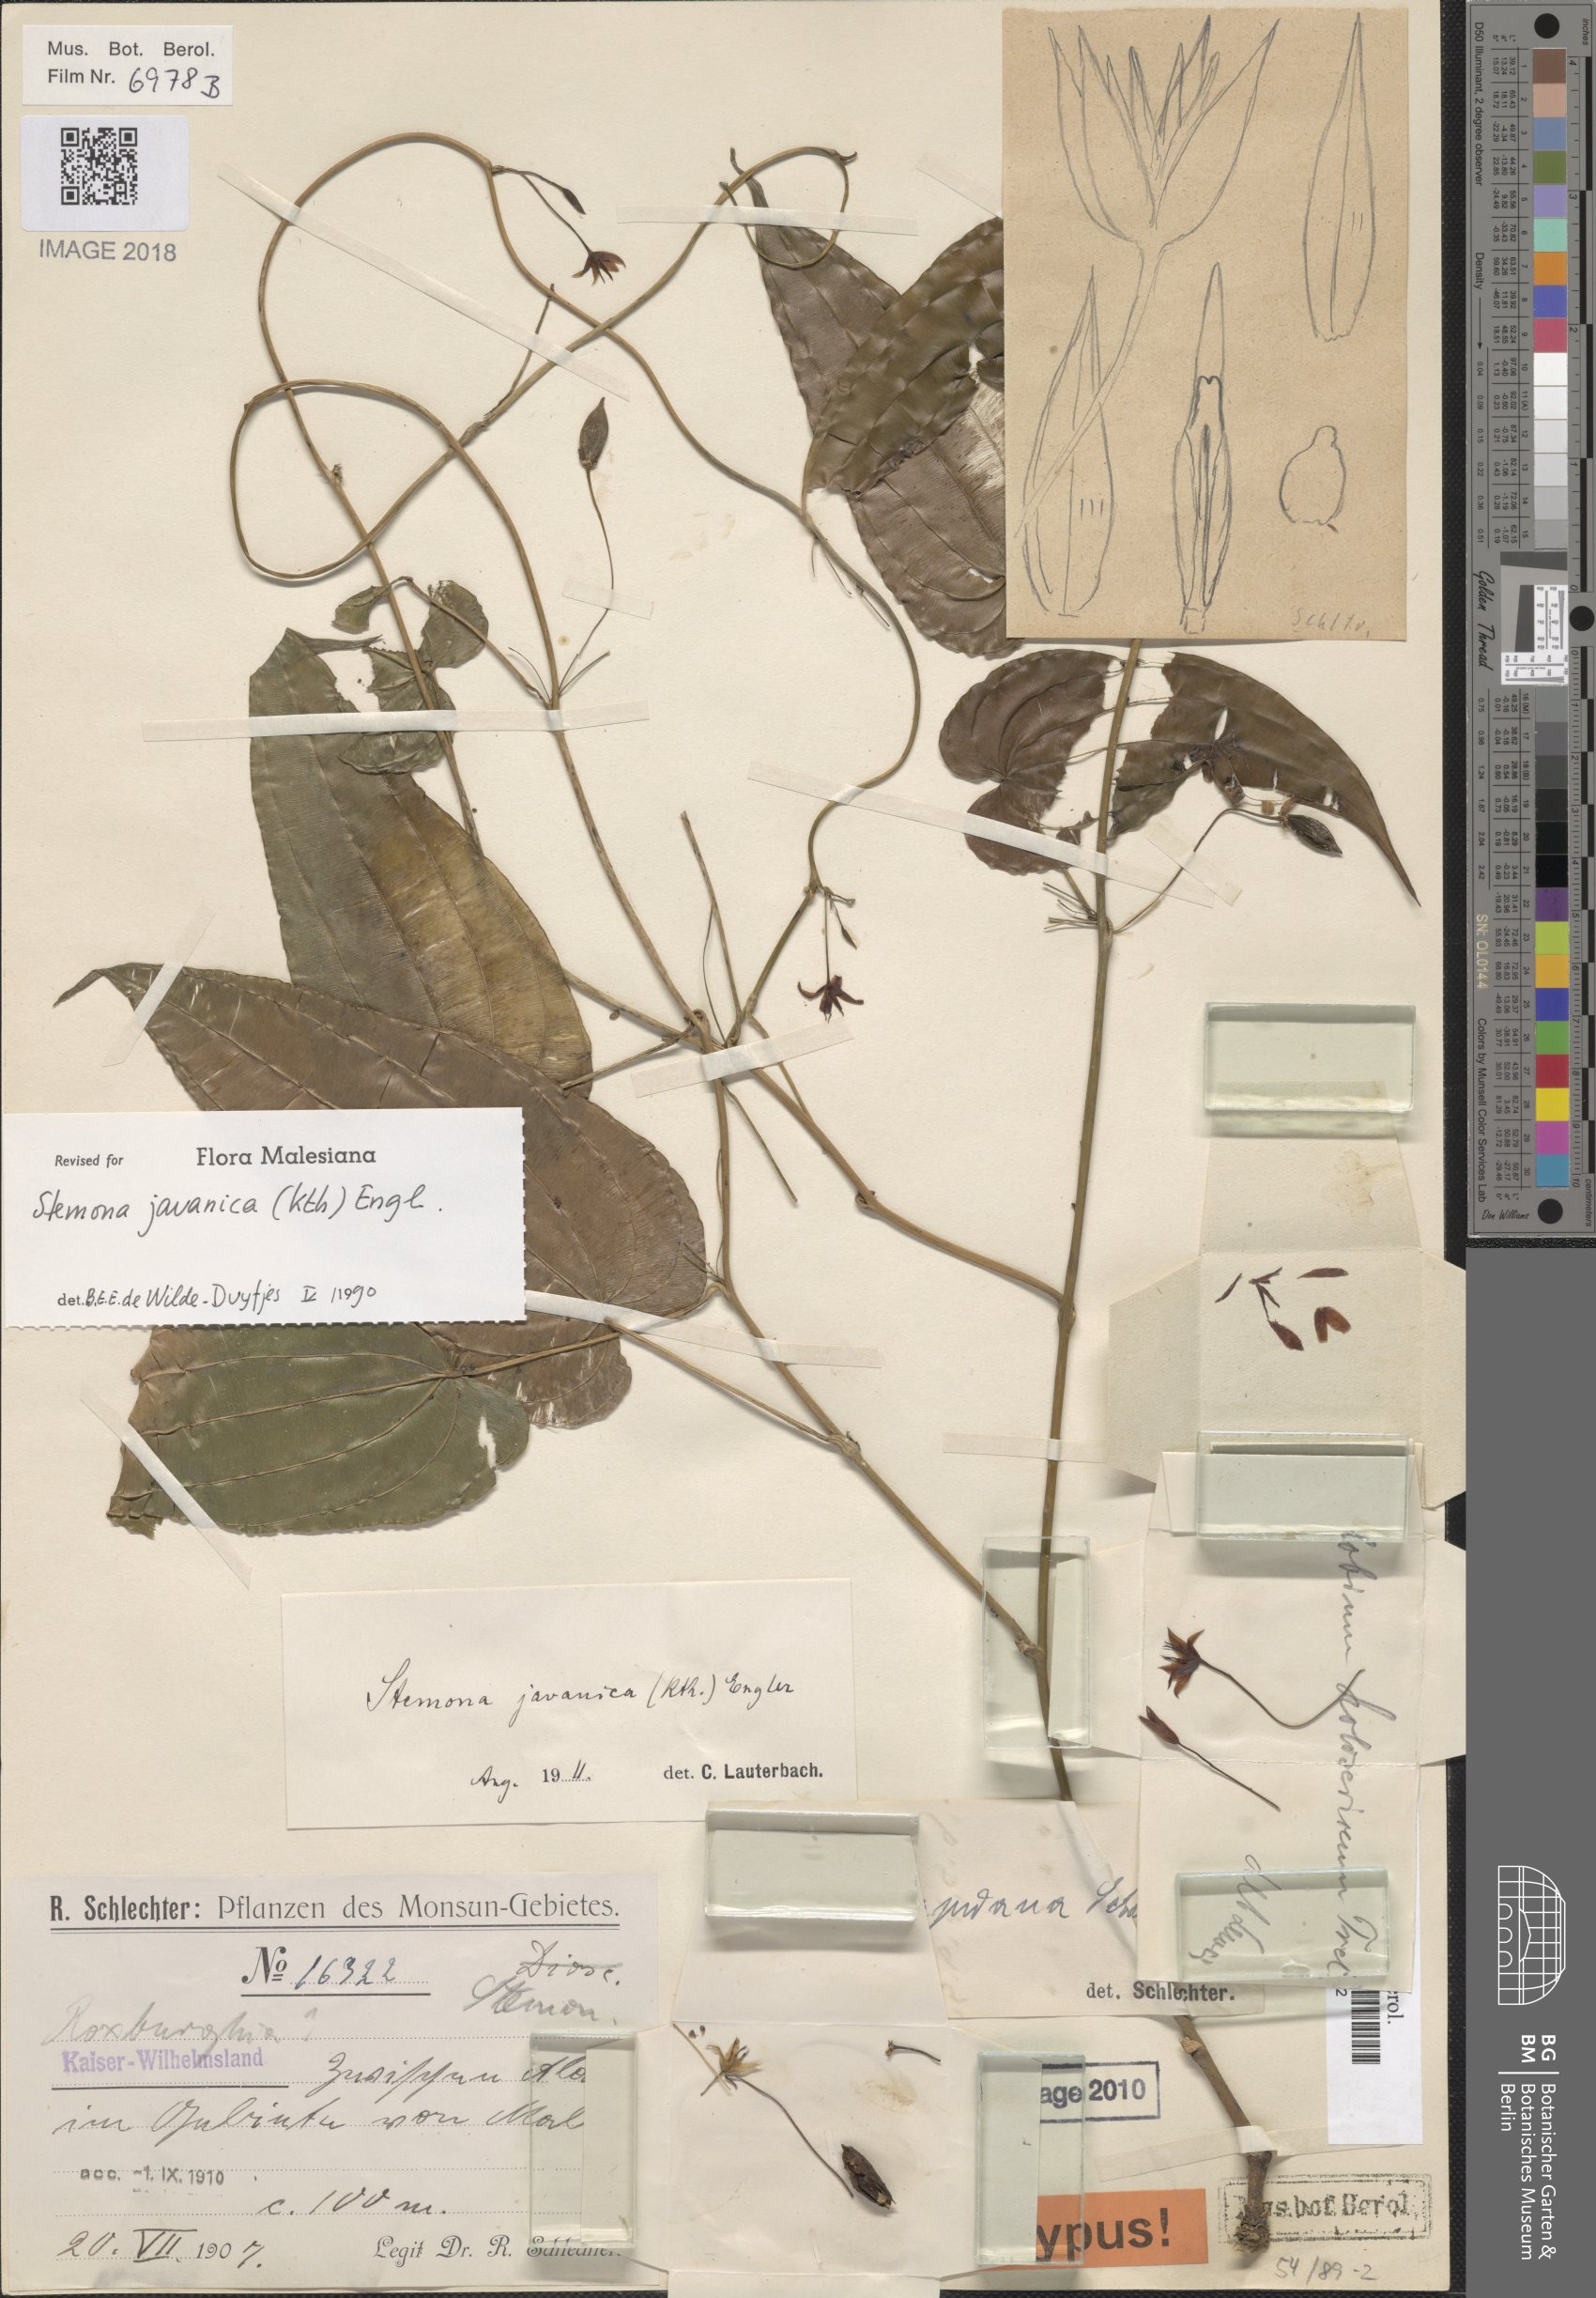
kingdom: Plantae
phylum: Tracheophyta
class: Liliopsida
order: Pandanales
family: Stemonaceae
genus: Stemona
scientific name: Stemona javanica
